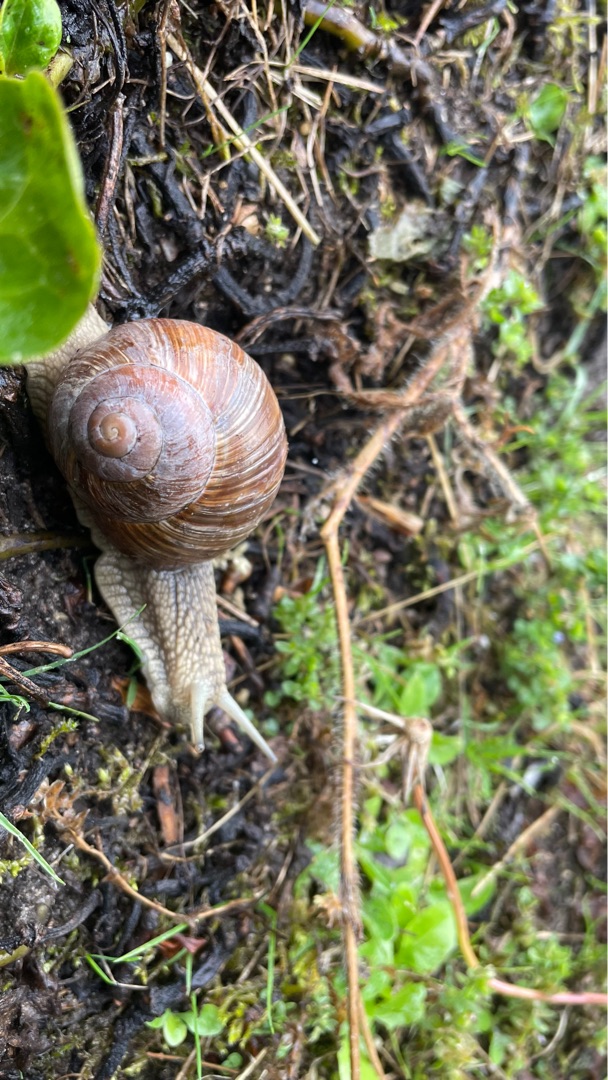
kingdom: Animalia
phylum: Mollusca
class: Gastropoda
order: Stylommatophora
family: Helicidae
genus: Helix
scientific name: Helix pomatia
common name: Vinbjergsnegl
